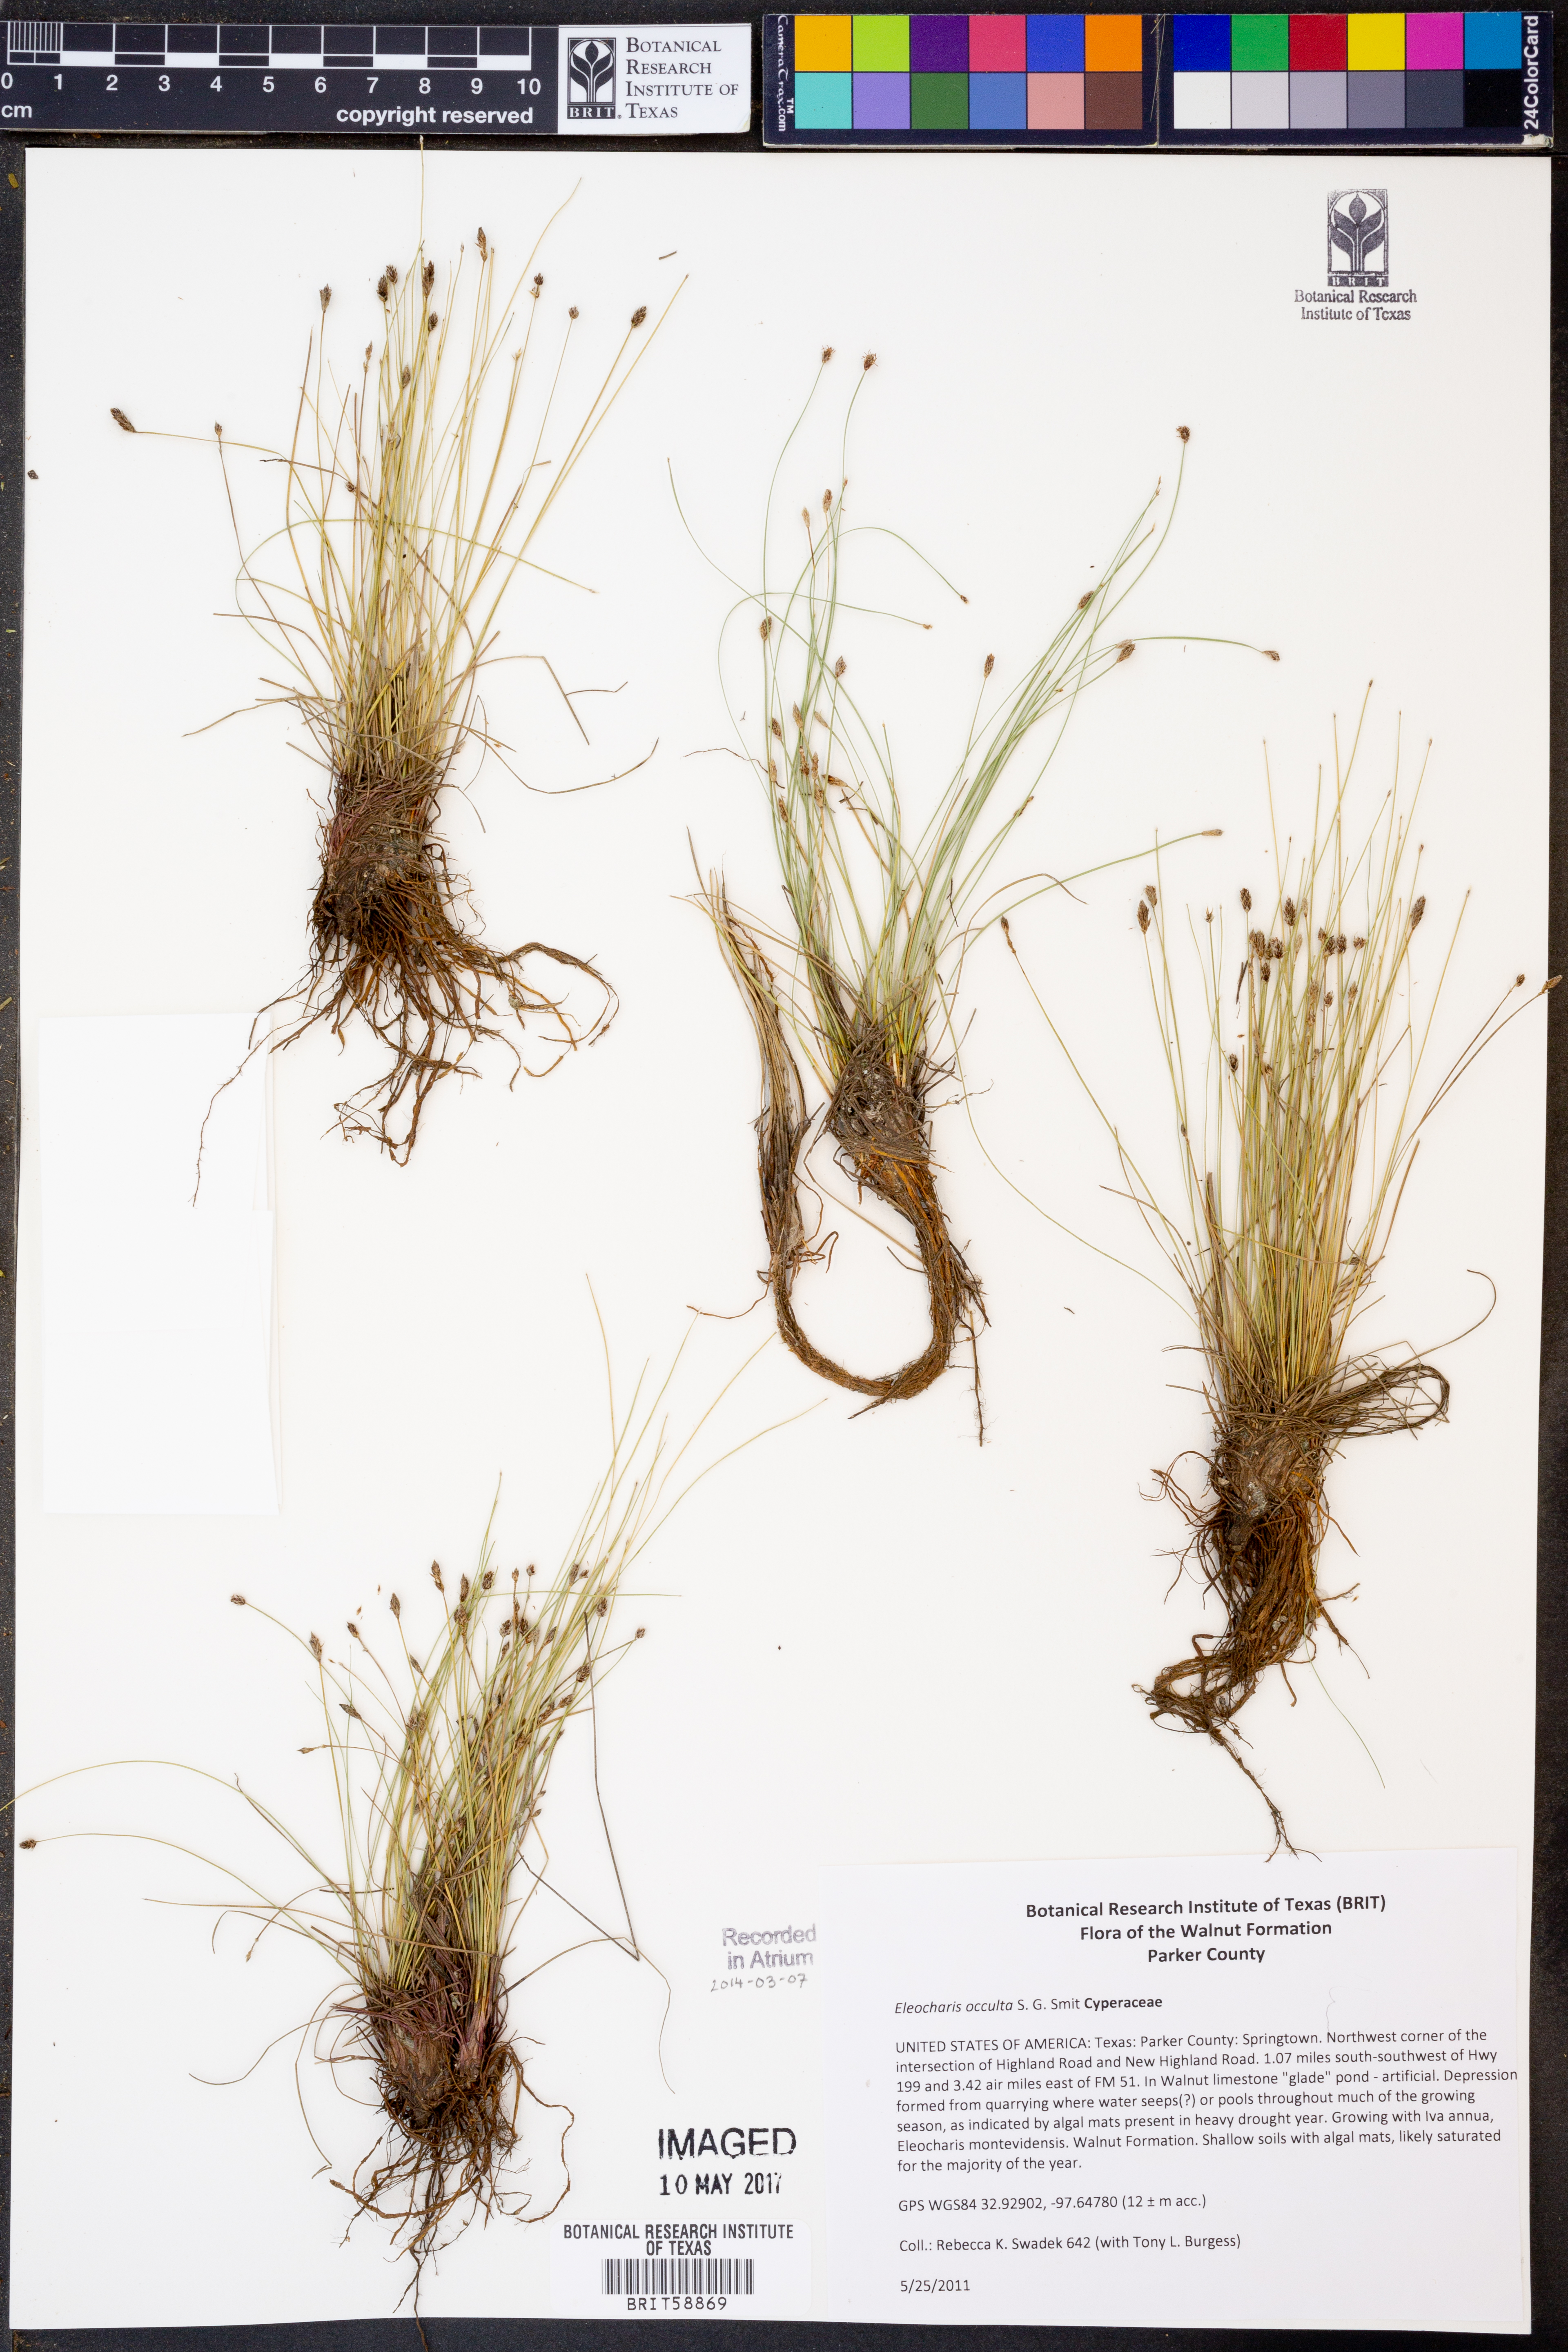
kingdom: Plantae
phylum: Tracheophyta
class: Liliopsida
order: Poales
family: Cyperaceae
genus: Eleocharis
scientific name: Eleocharis occulta
